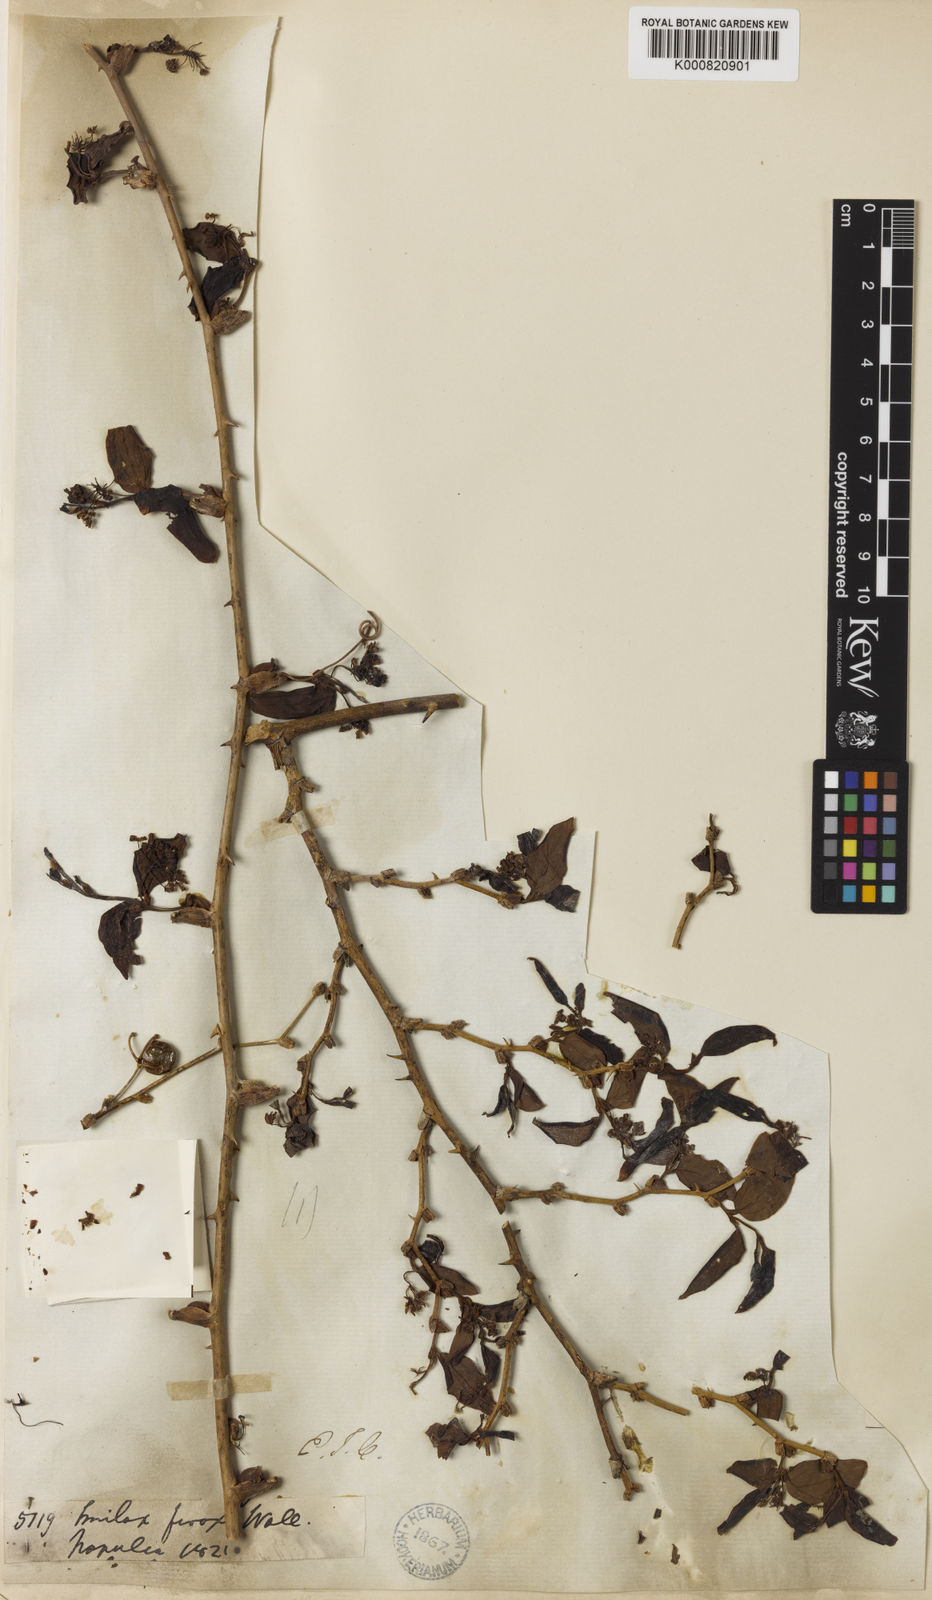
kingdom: Plantae
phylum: Tracheophyta
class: Liliopsida
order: Liliales
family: Smilacaceae
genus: Smilax
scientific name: Smilax ferox
